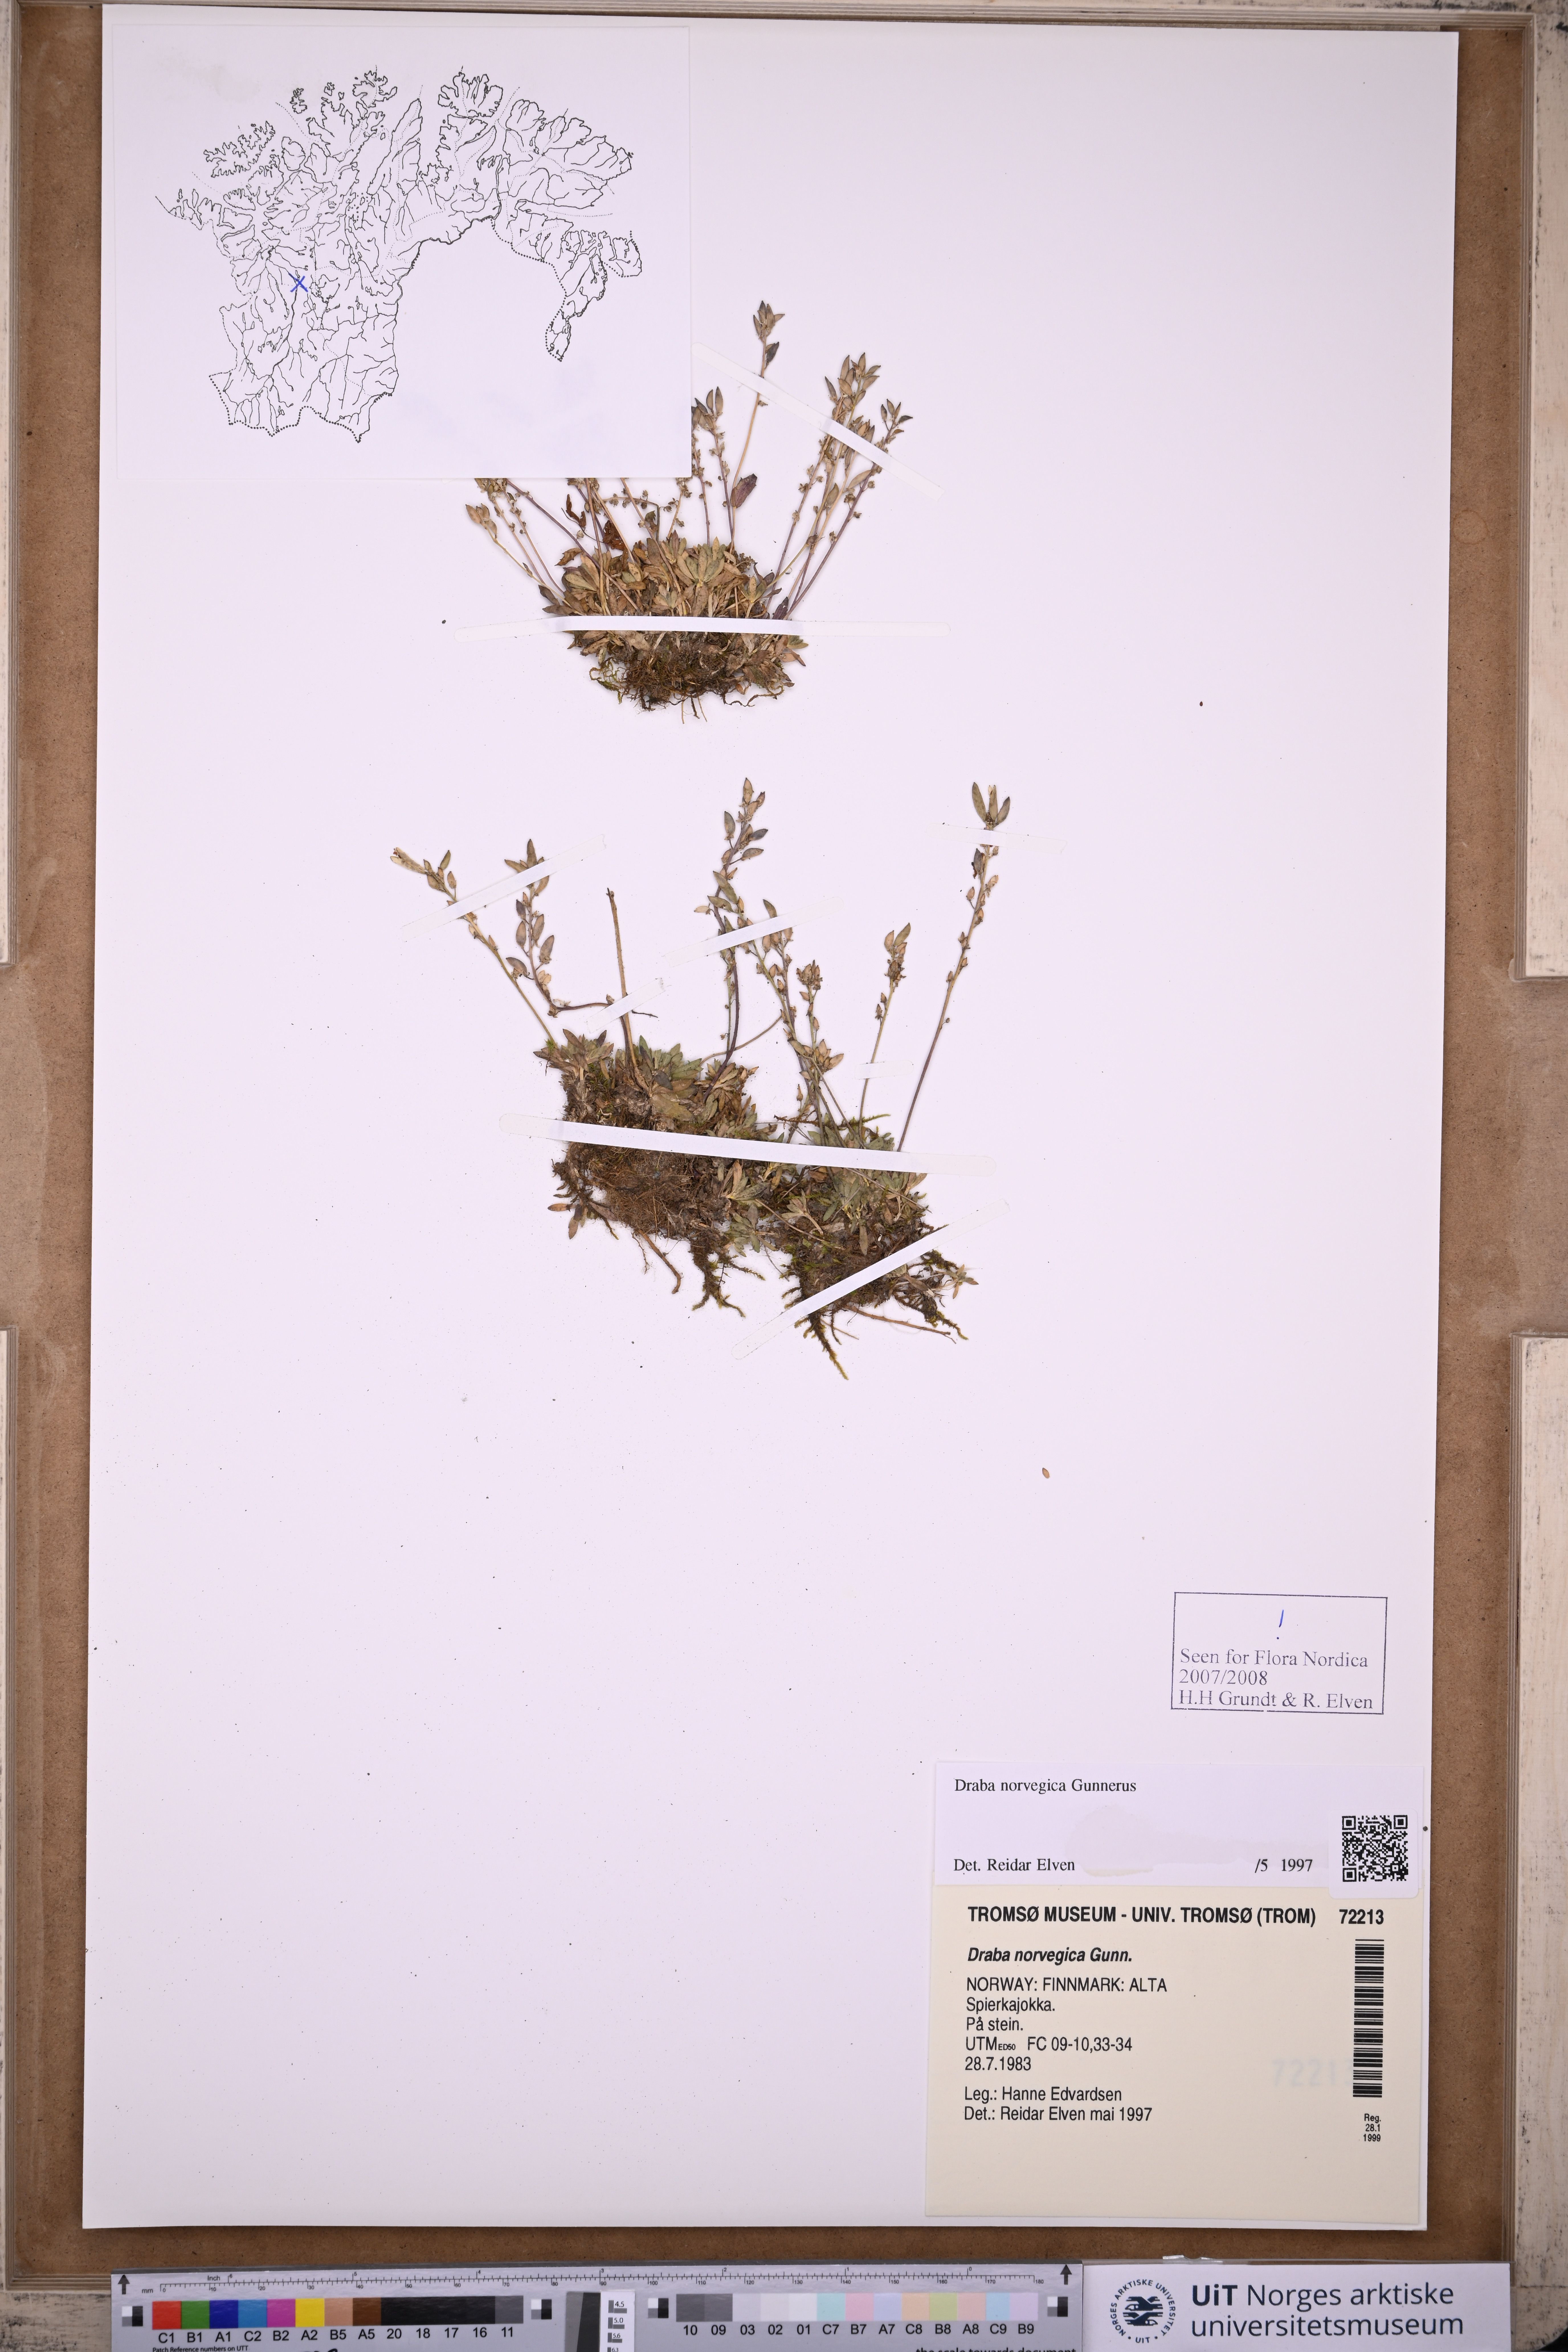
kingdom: Plantae
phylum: Tracheophyta
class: Magnoliopsida
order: Brassicales
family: Brassicaceae
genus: Draba
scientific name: Draba norvegica
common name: Rock whitlowgrass
